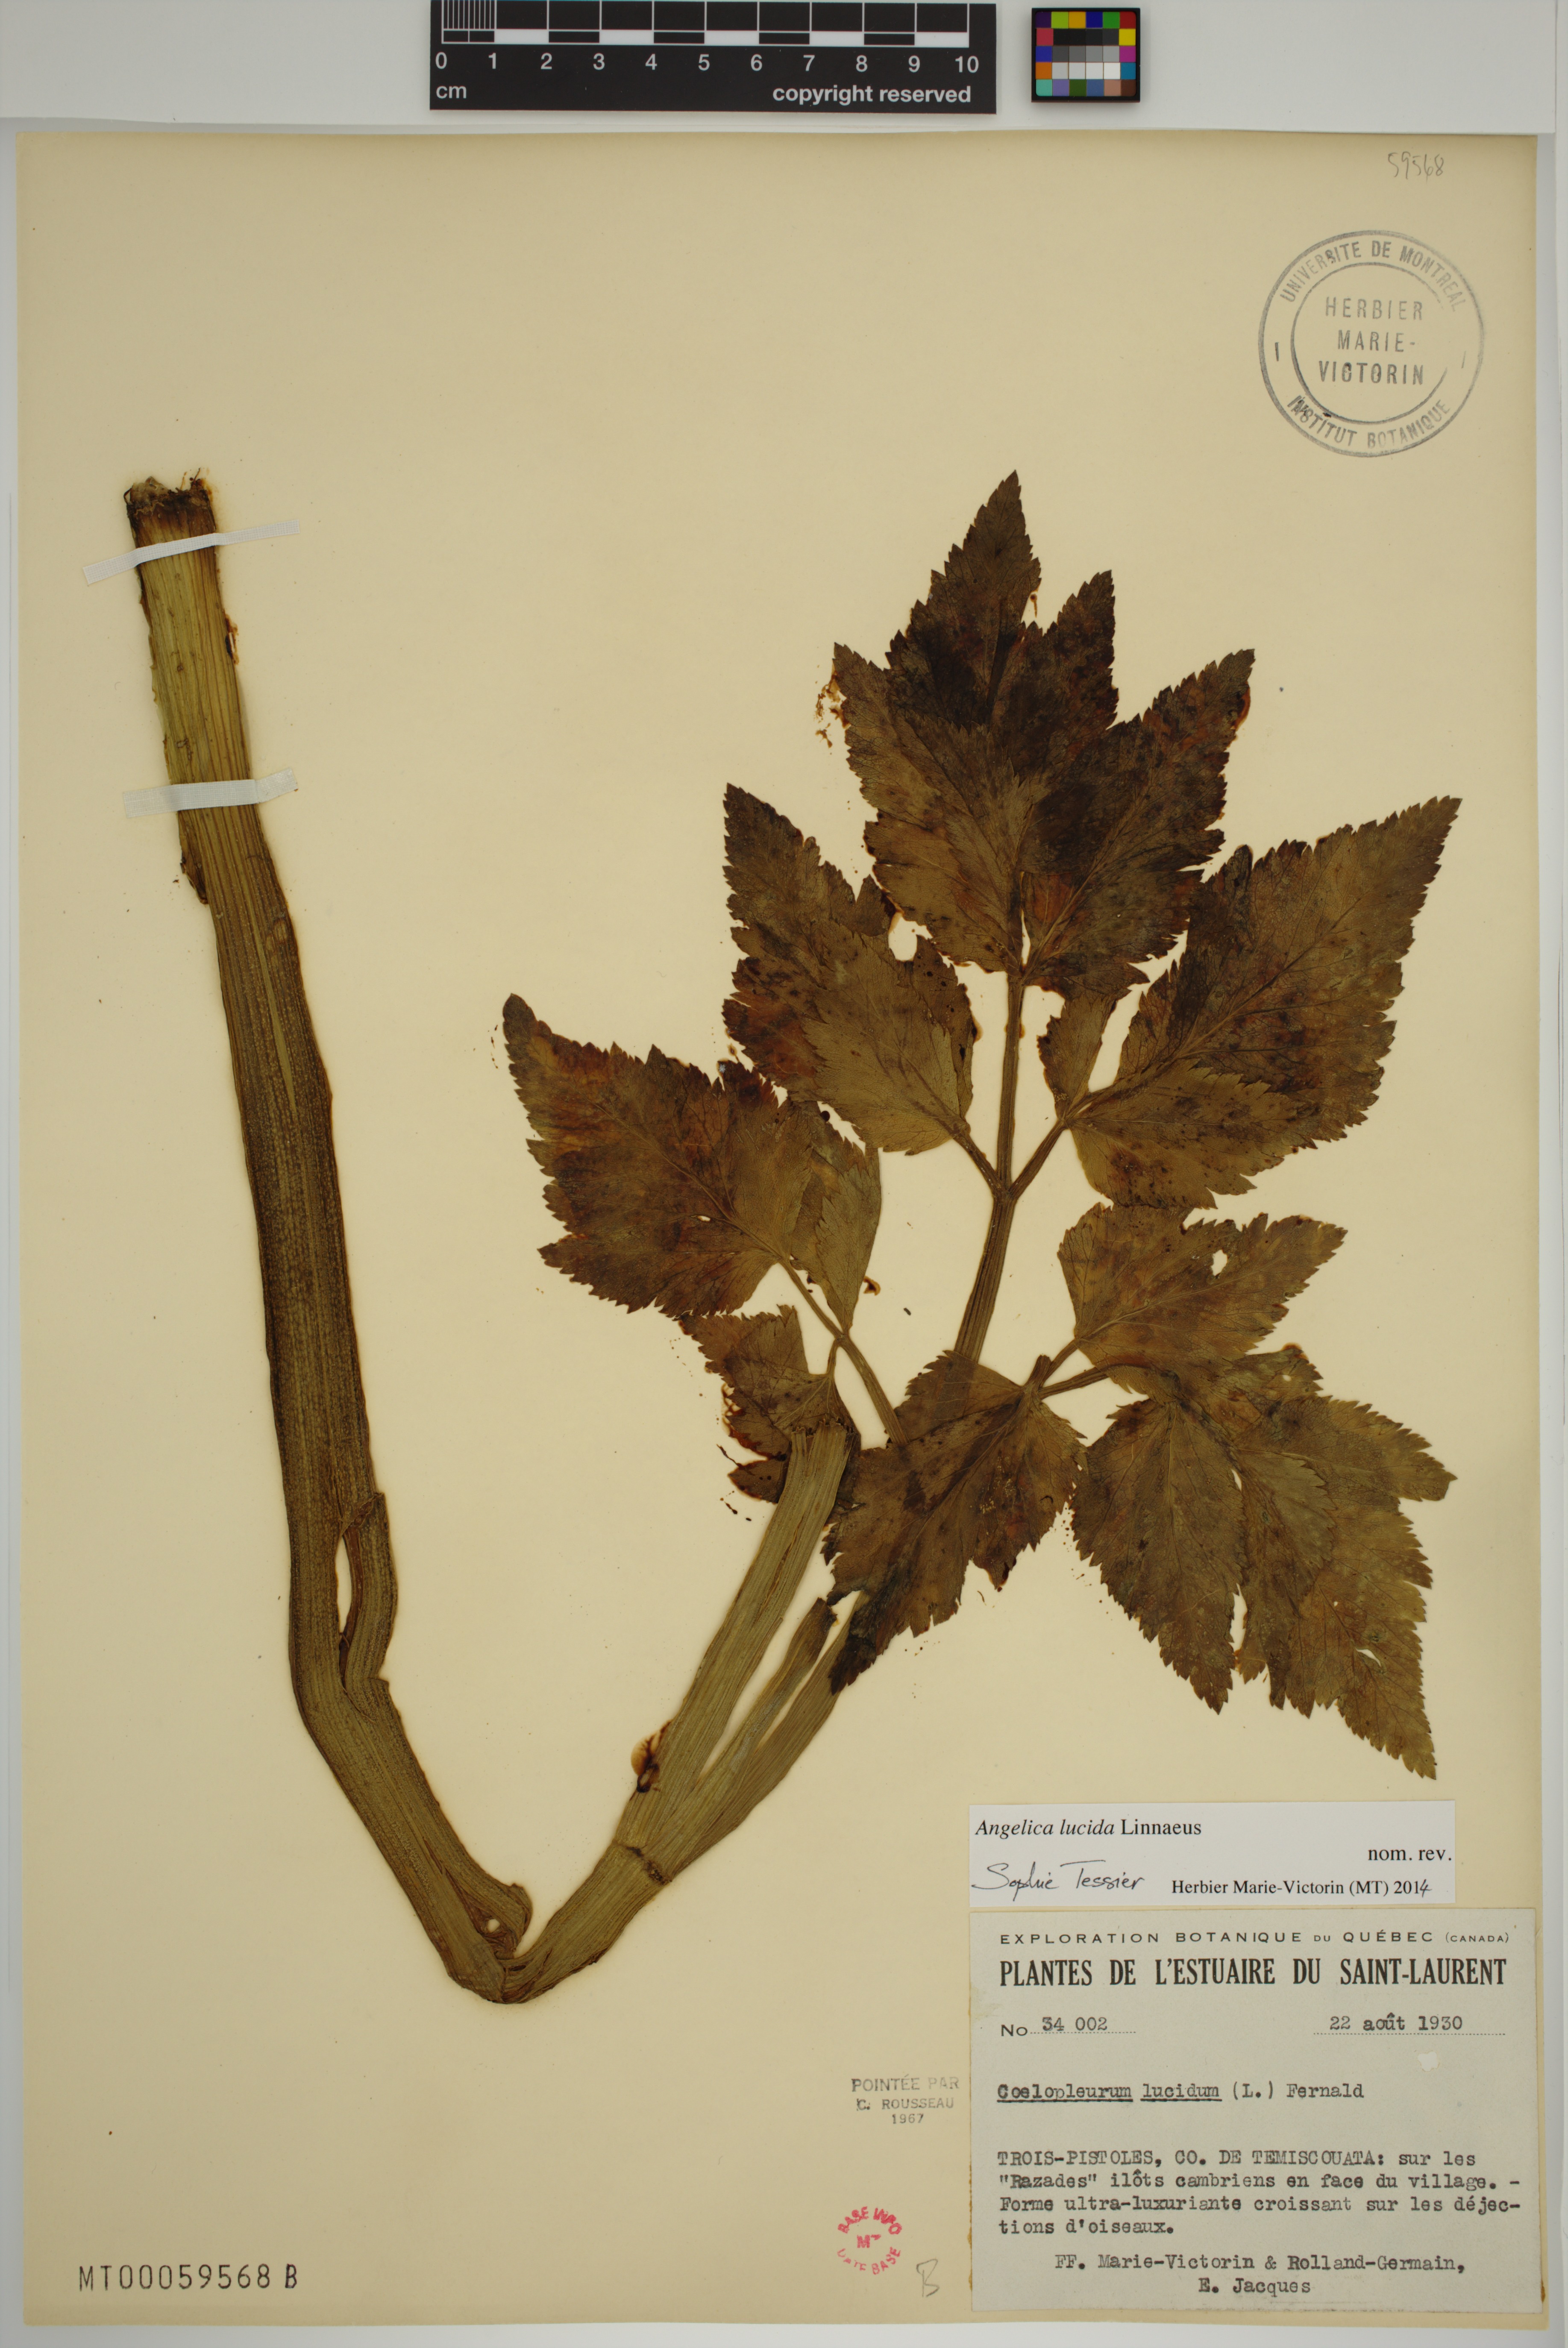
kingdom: Plantae
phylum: Tracheophyta
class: Magnoliopsida
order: Apiales
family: Apiaceae
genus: Angelica
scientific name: Angelica lucida
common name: Seabeach angelica
